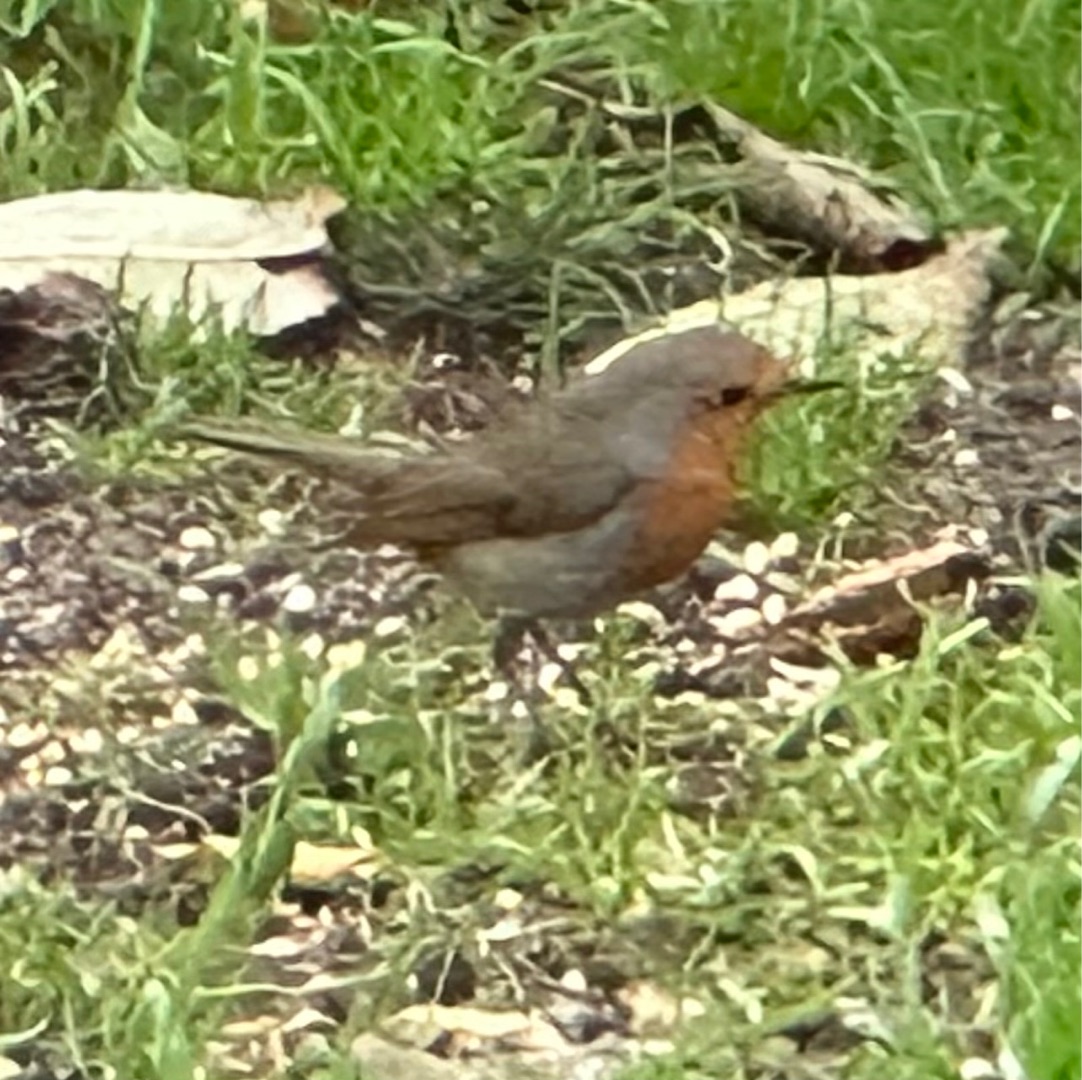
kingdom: Animalia
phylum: Chordata
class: Aves
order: Passeriformes
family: Muscicapidae
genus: Erithacus
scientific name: Erithacus rubecula
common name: Rødhals/rødkælk
